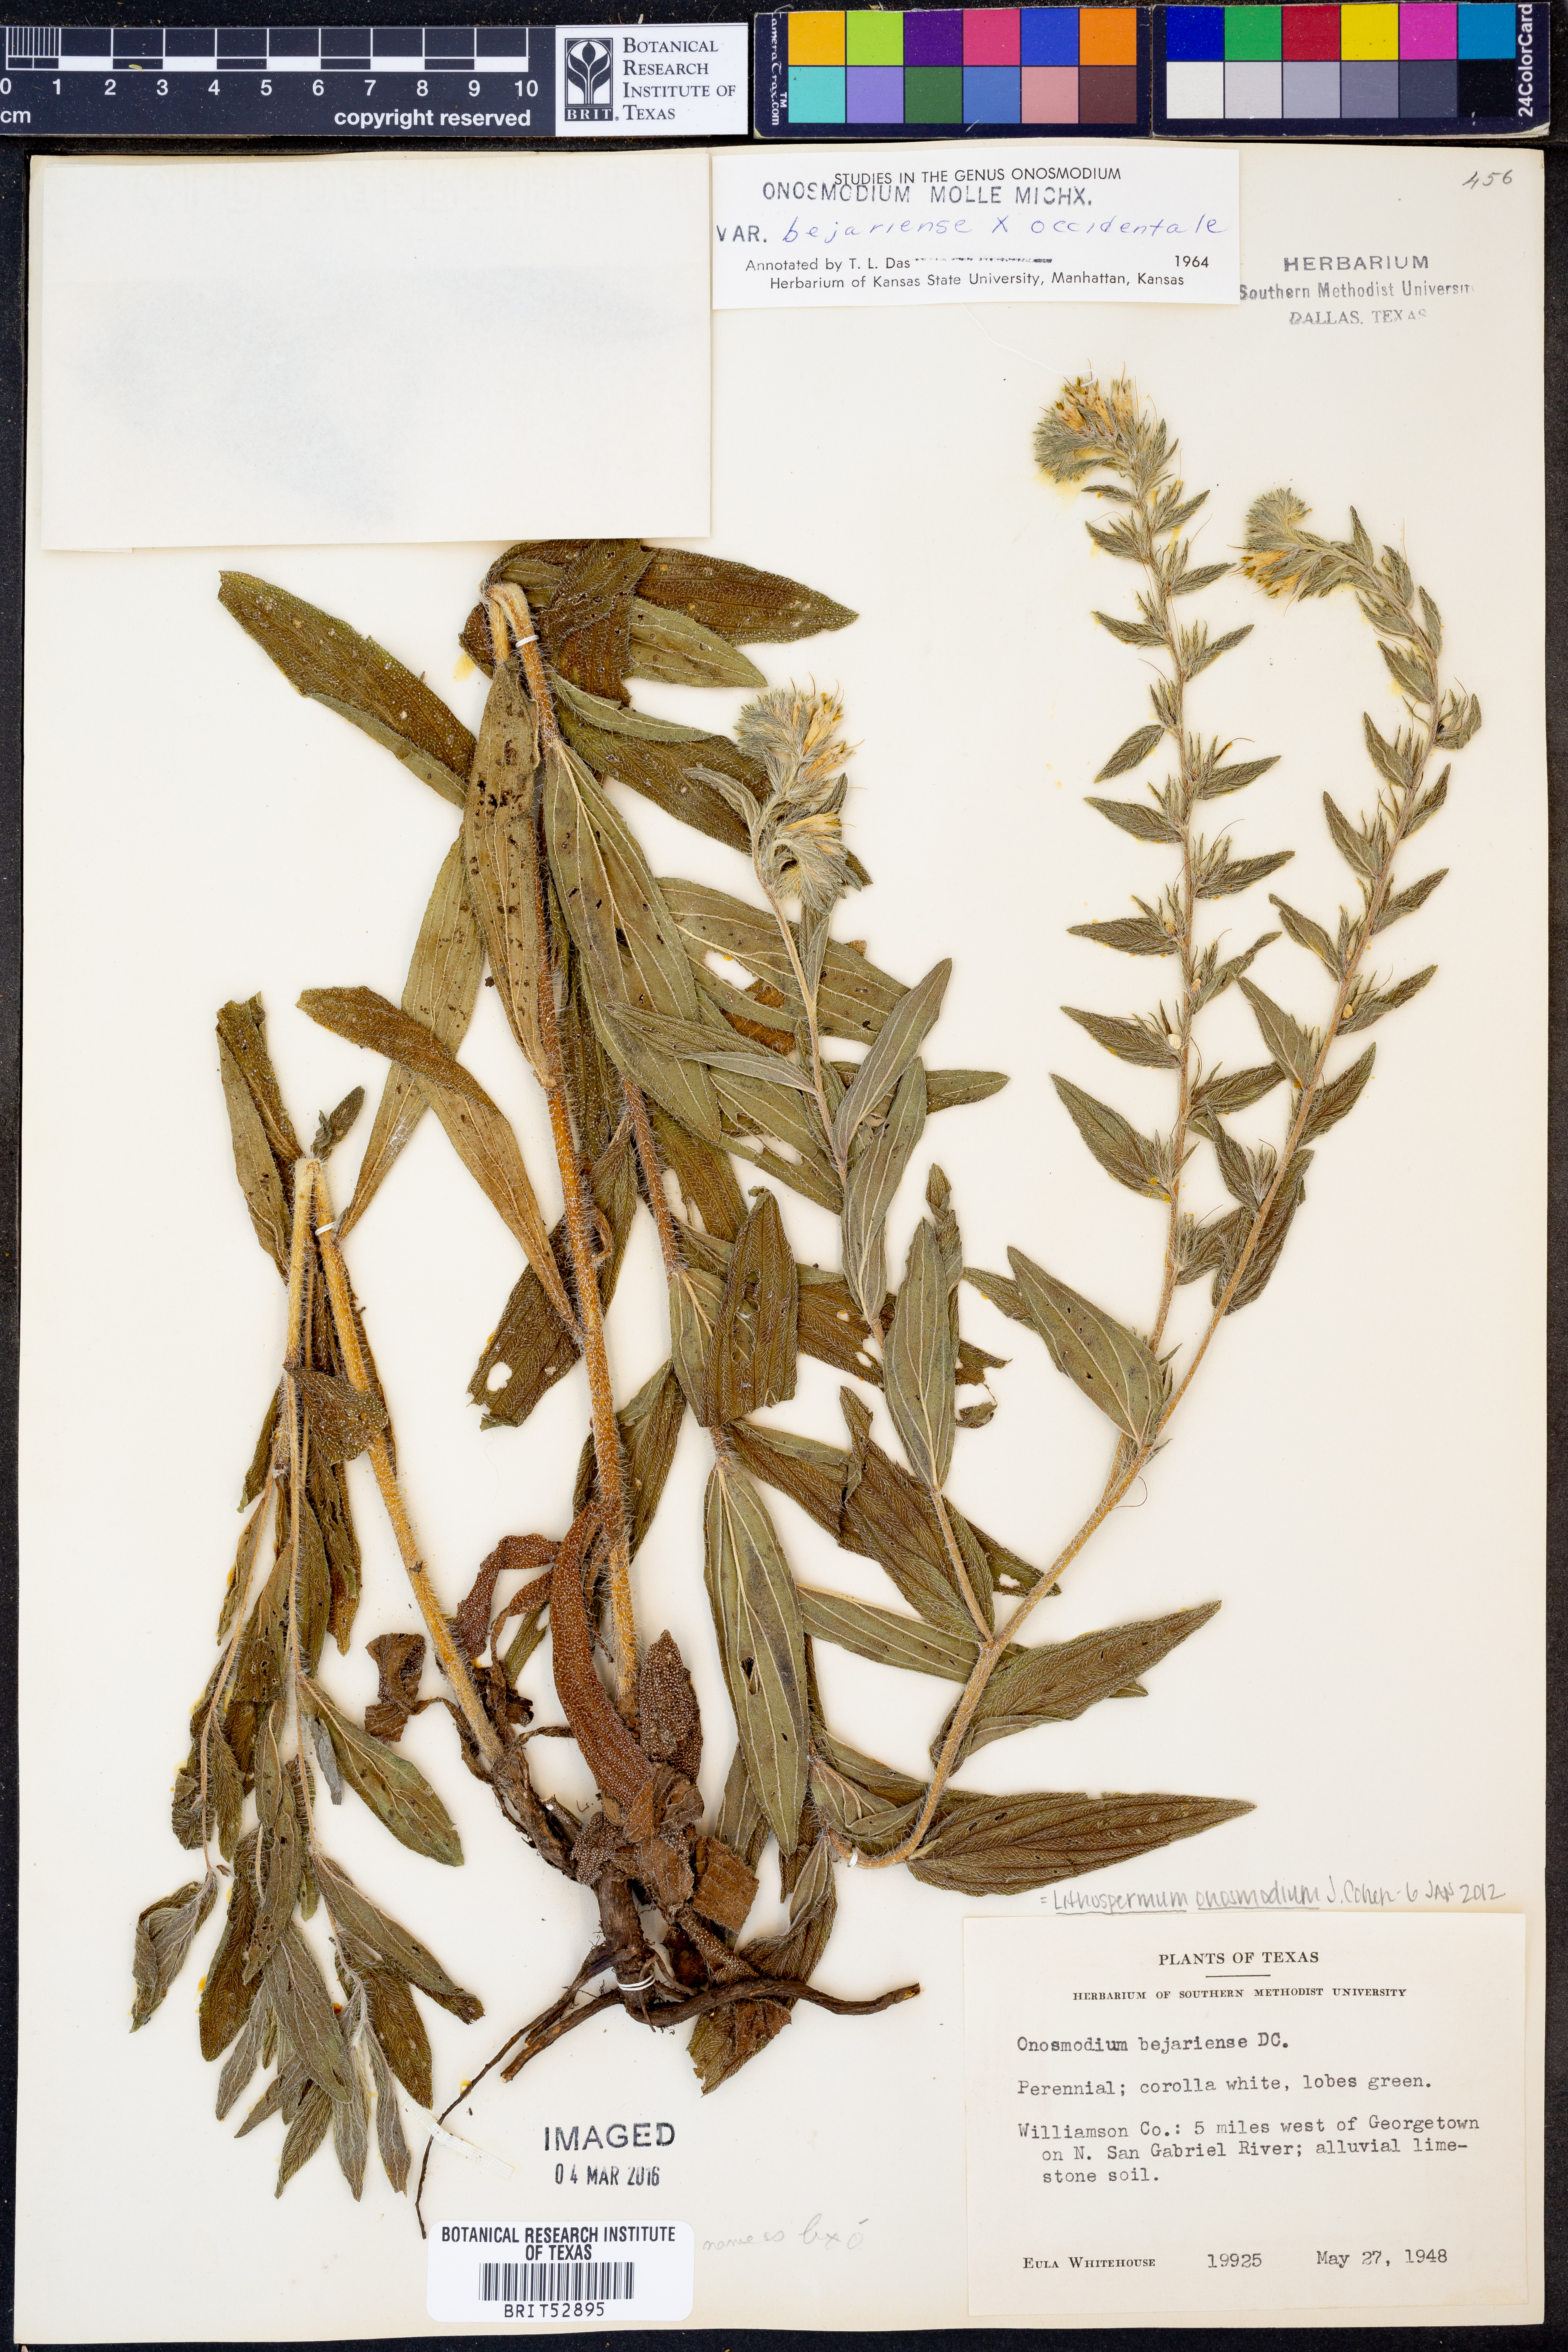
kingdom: Plantae
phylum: Tracheophyta
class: Magnoliopsida
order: Boraginales
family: Boraginaceae
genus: Lithospermum
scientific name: Lithospermum molle
